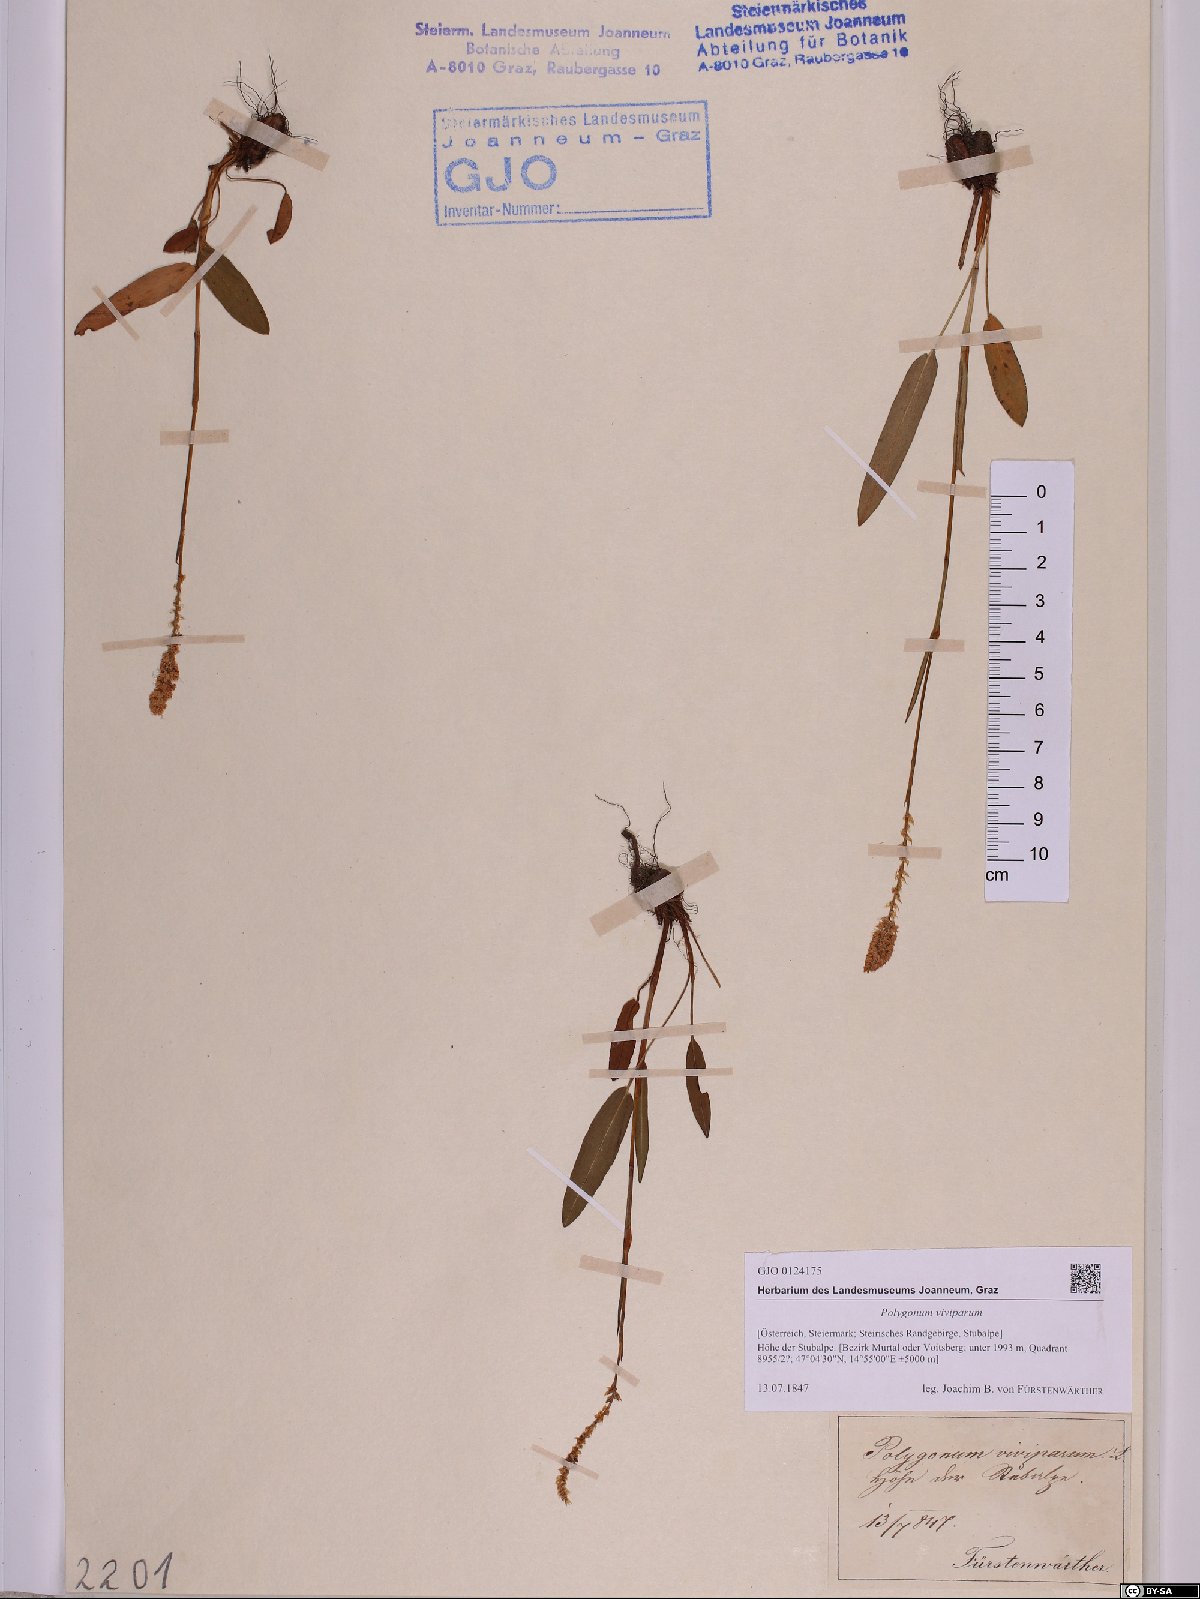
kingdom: Plantae
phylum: Tracheophyta
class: Magnoliopsida
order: Caryophyllales
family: Polygonaceae
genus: Bistorta
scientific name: Bistorta vivipara
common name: Alpine bistort
